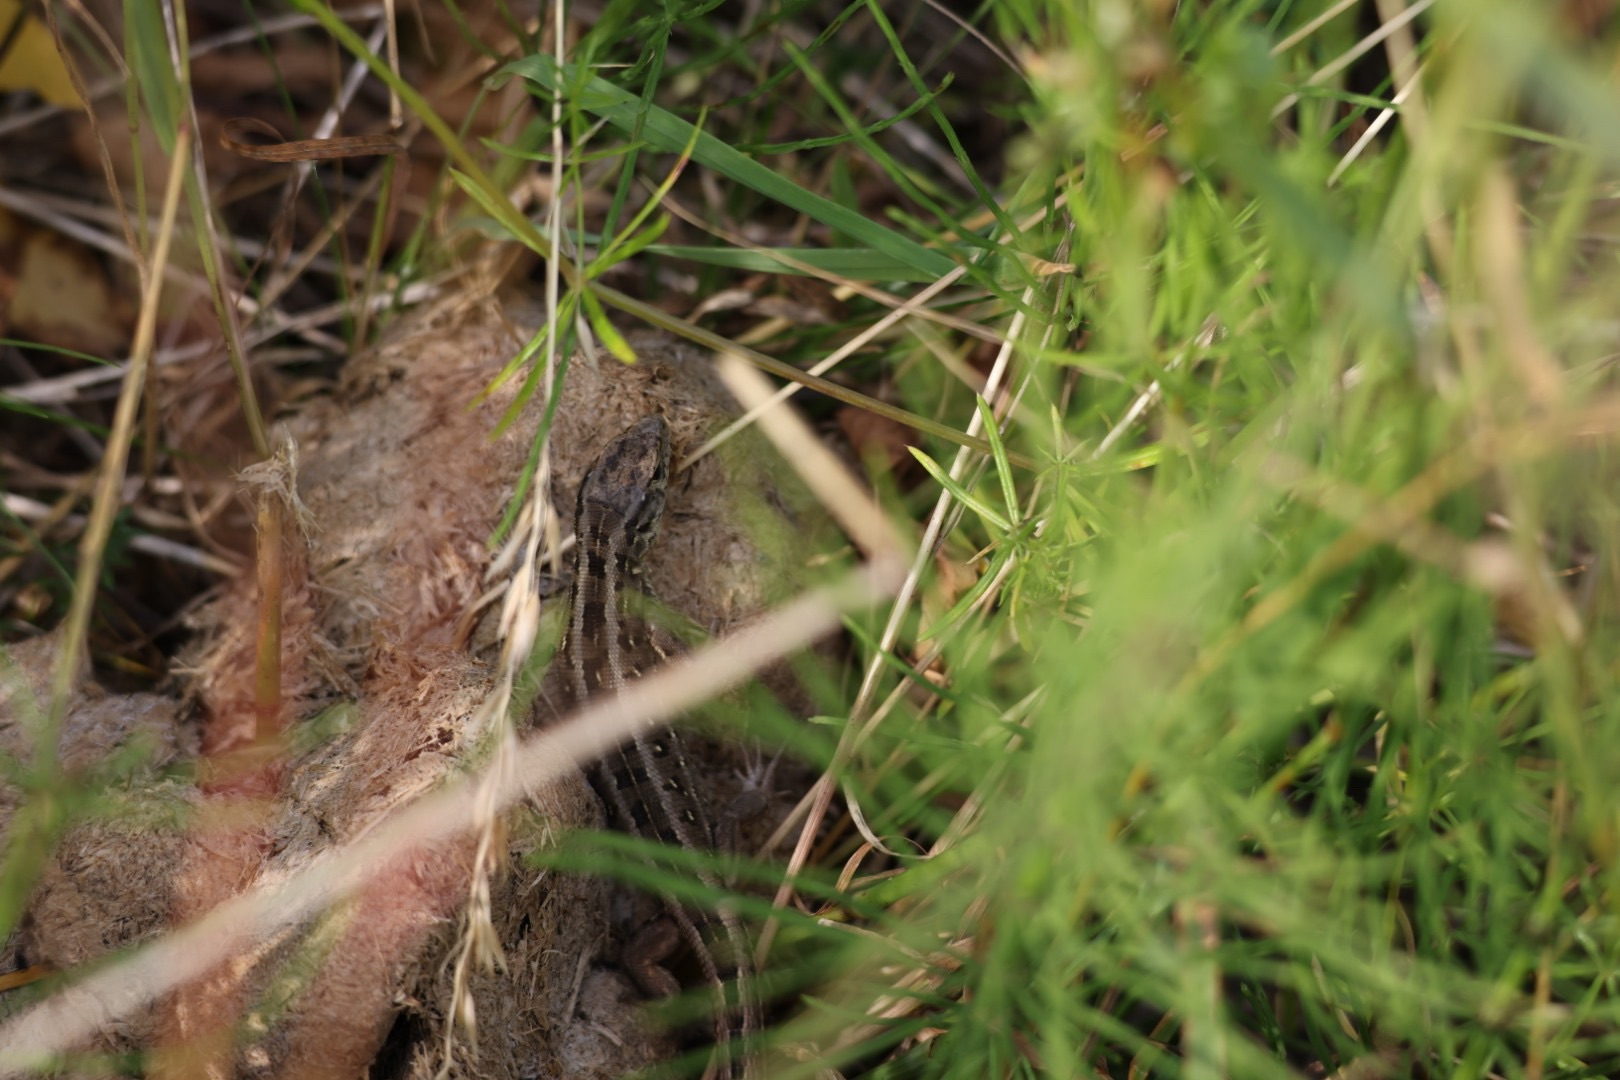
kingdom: Animalia
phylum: Chordata
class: Squamata
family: Lacertidae
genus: Lacerta
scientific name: Lacerta agilis
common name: Markfirben
